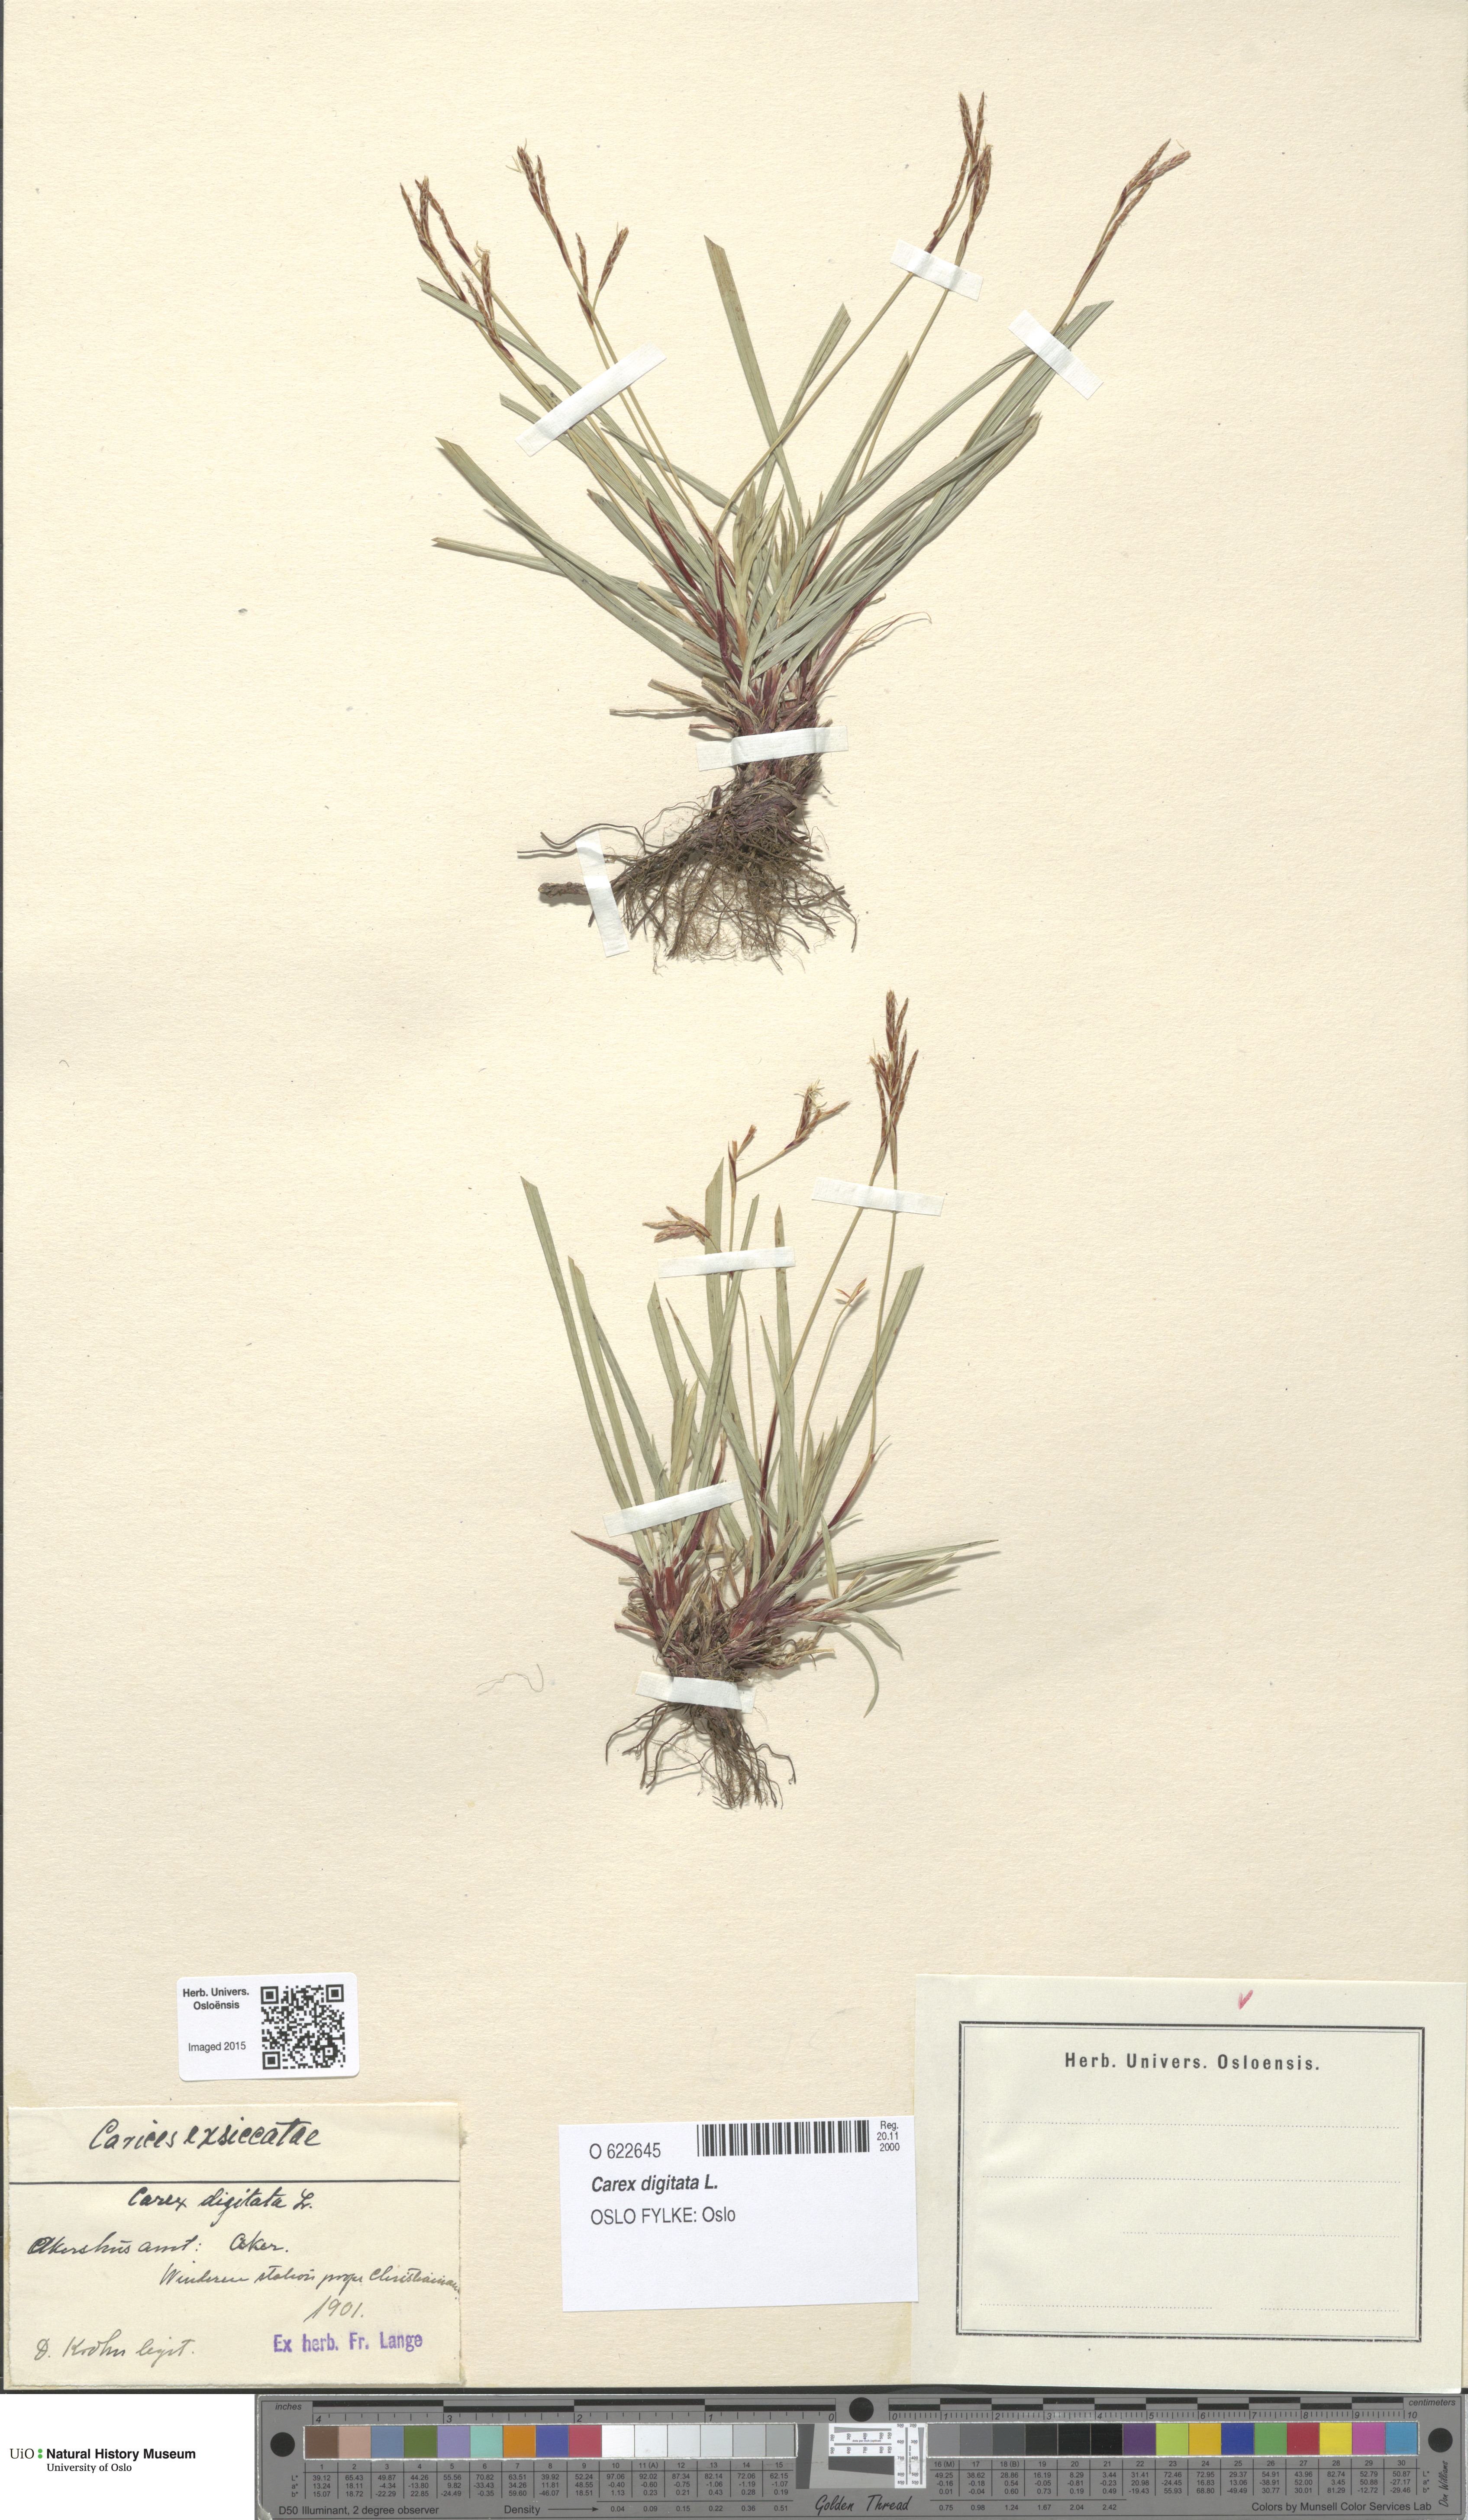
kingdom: Plantae
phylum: Tracheophyta
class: Liliopsida
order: Poales
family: Cyperaceae
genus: Carex
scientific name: Carex digitata
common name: Fingered sedge
